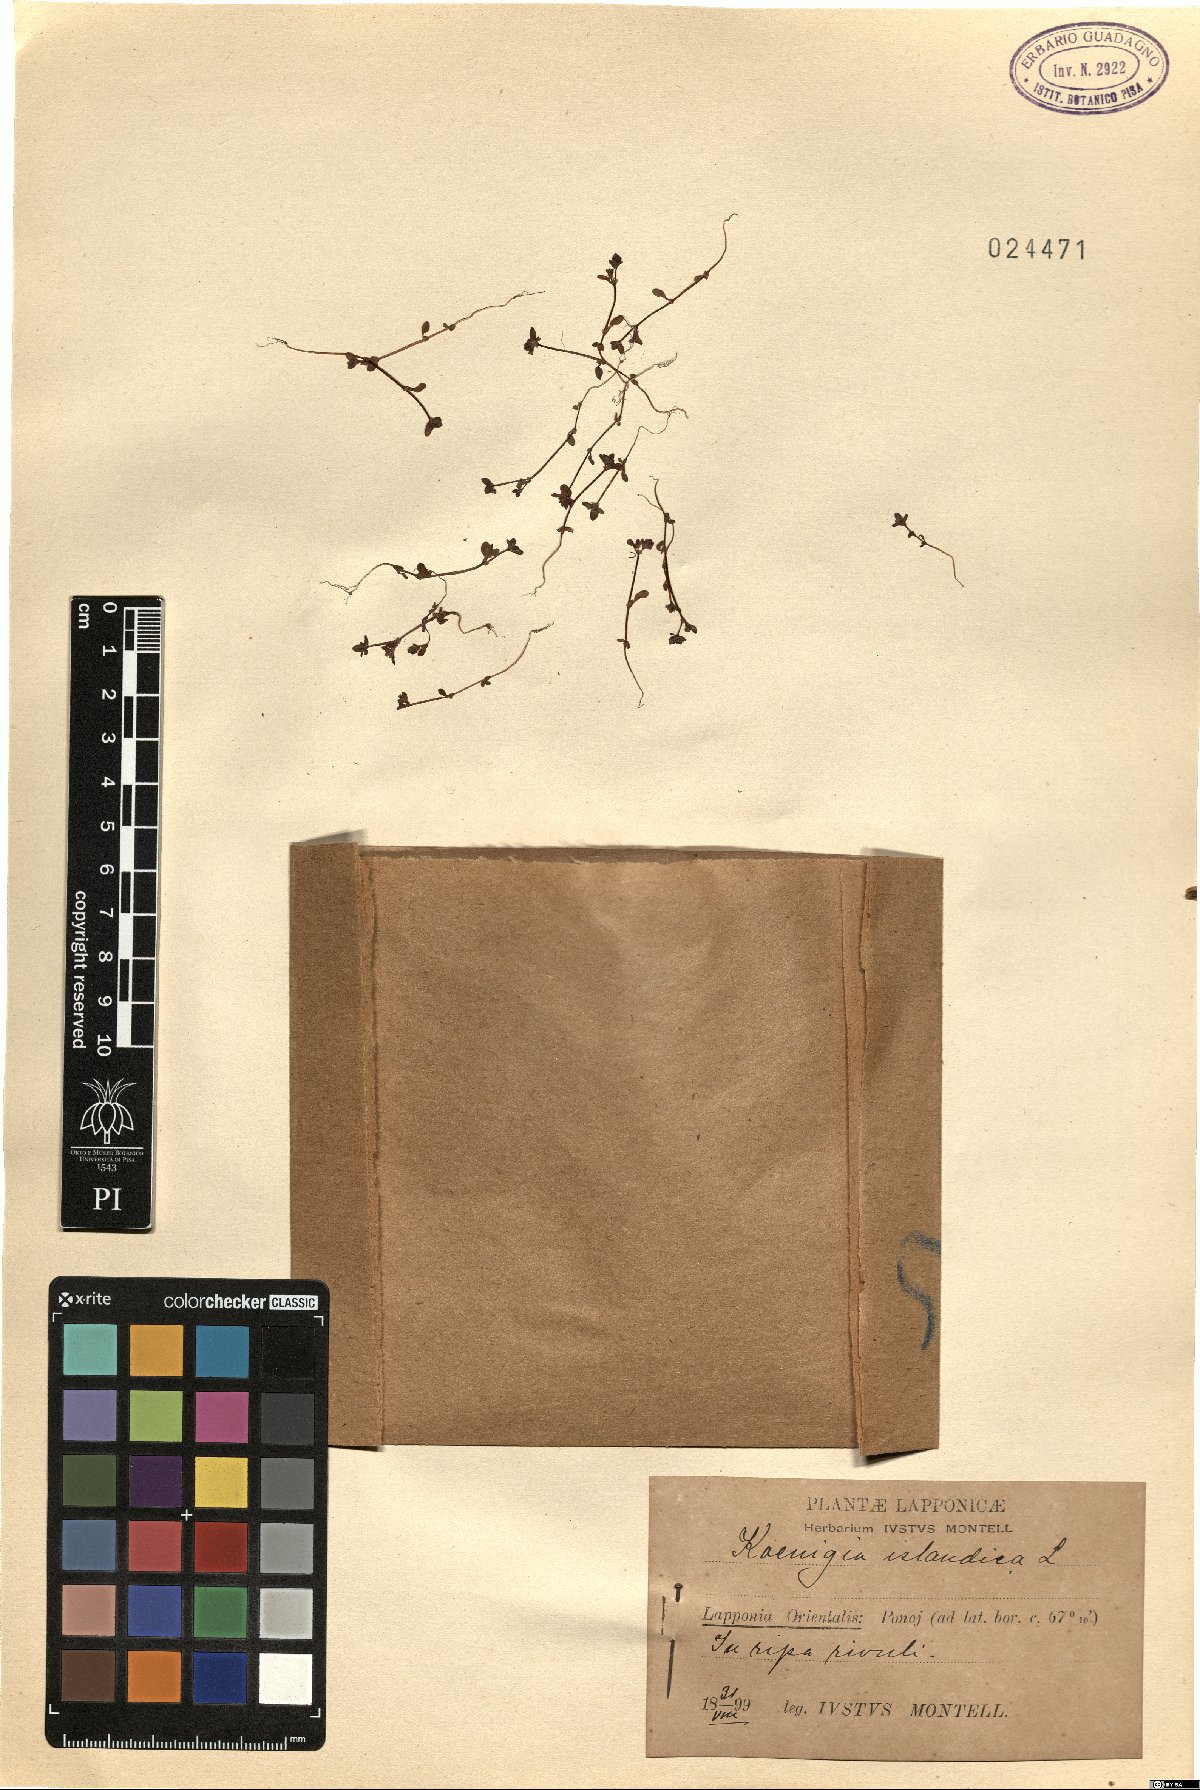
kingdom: Plantae
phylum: Tracheophyta
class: Magnoliopsida
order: Caryophyllales
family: Polygonaceae
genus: Koenigia
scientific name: Koenigia islandica
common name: Iceland-purslane
